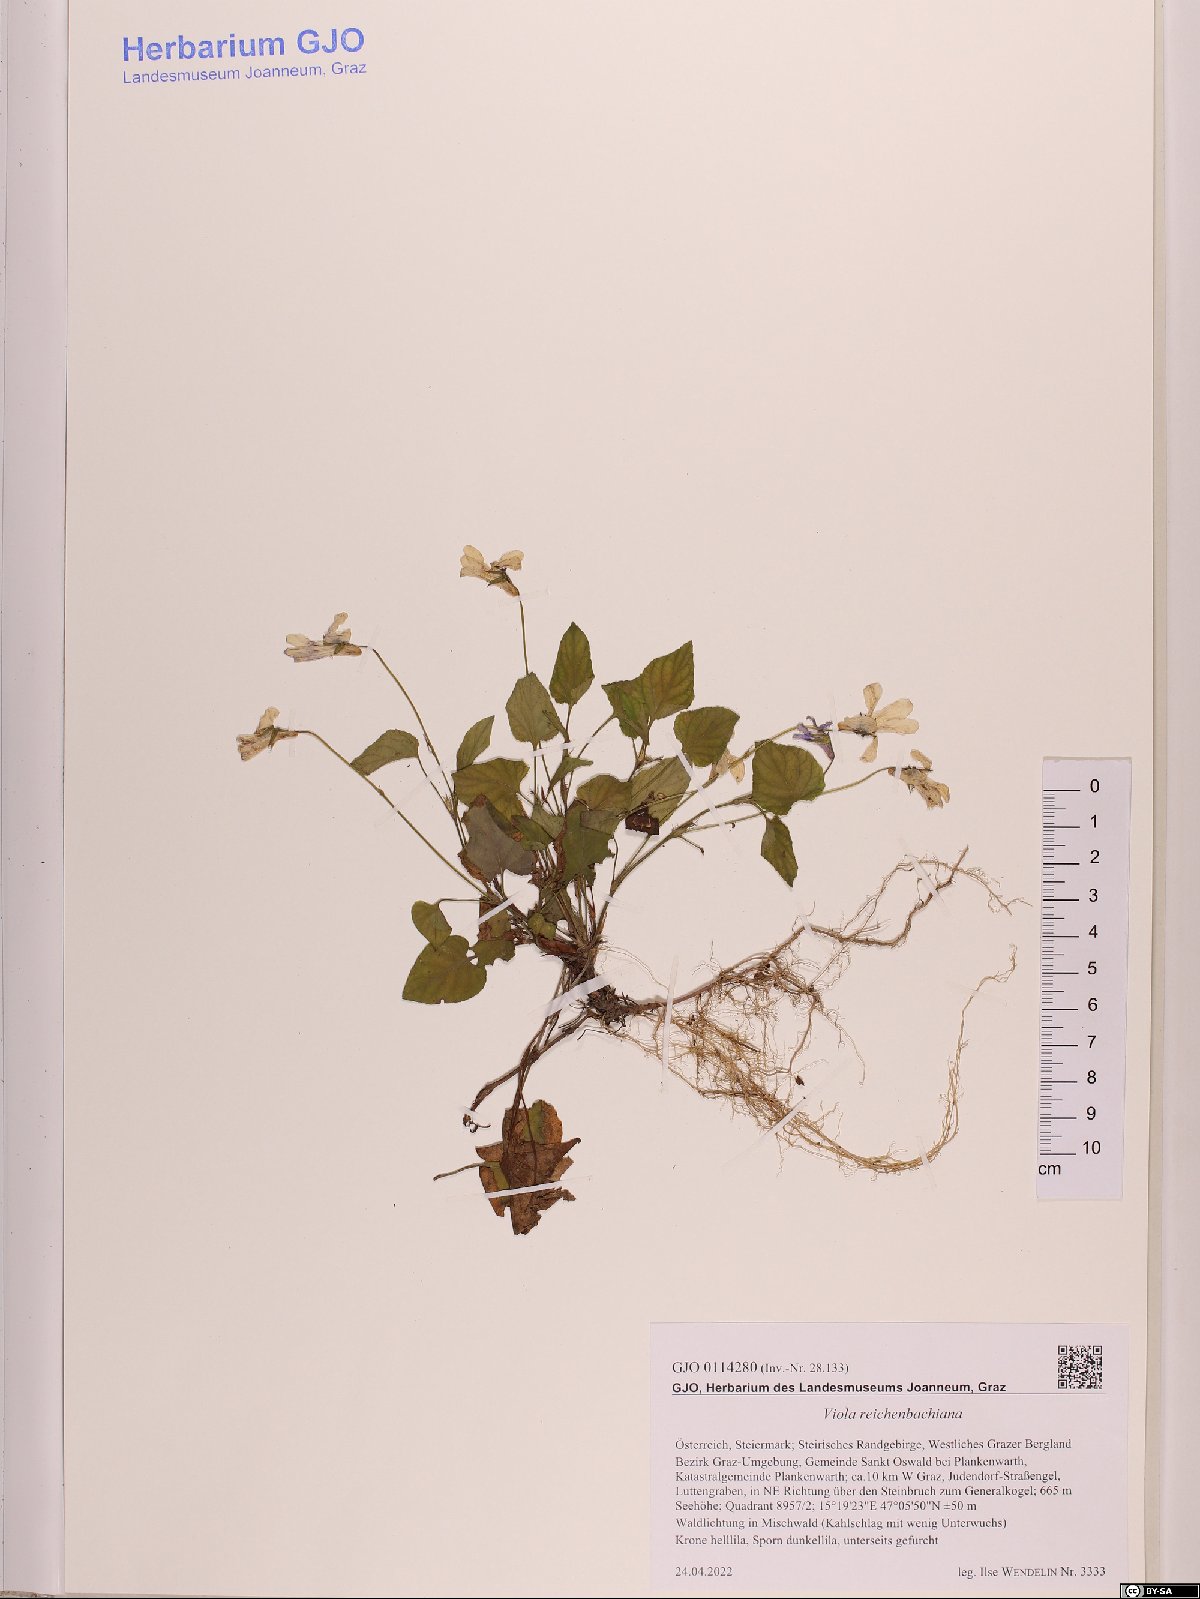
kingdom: Plantae
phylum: Tracheophyta
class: Magnoliopsida
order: Malpighiales
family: Violaceae
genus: Viola
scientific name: Viola reichenbachiana
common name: Early dog-violet
